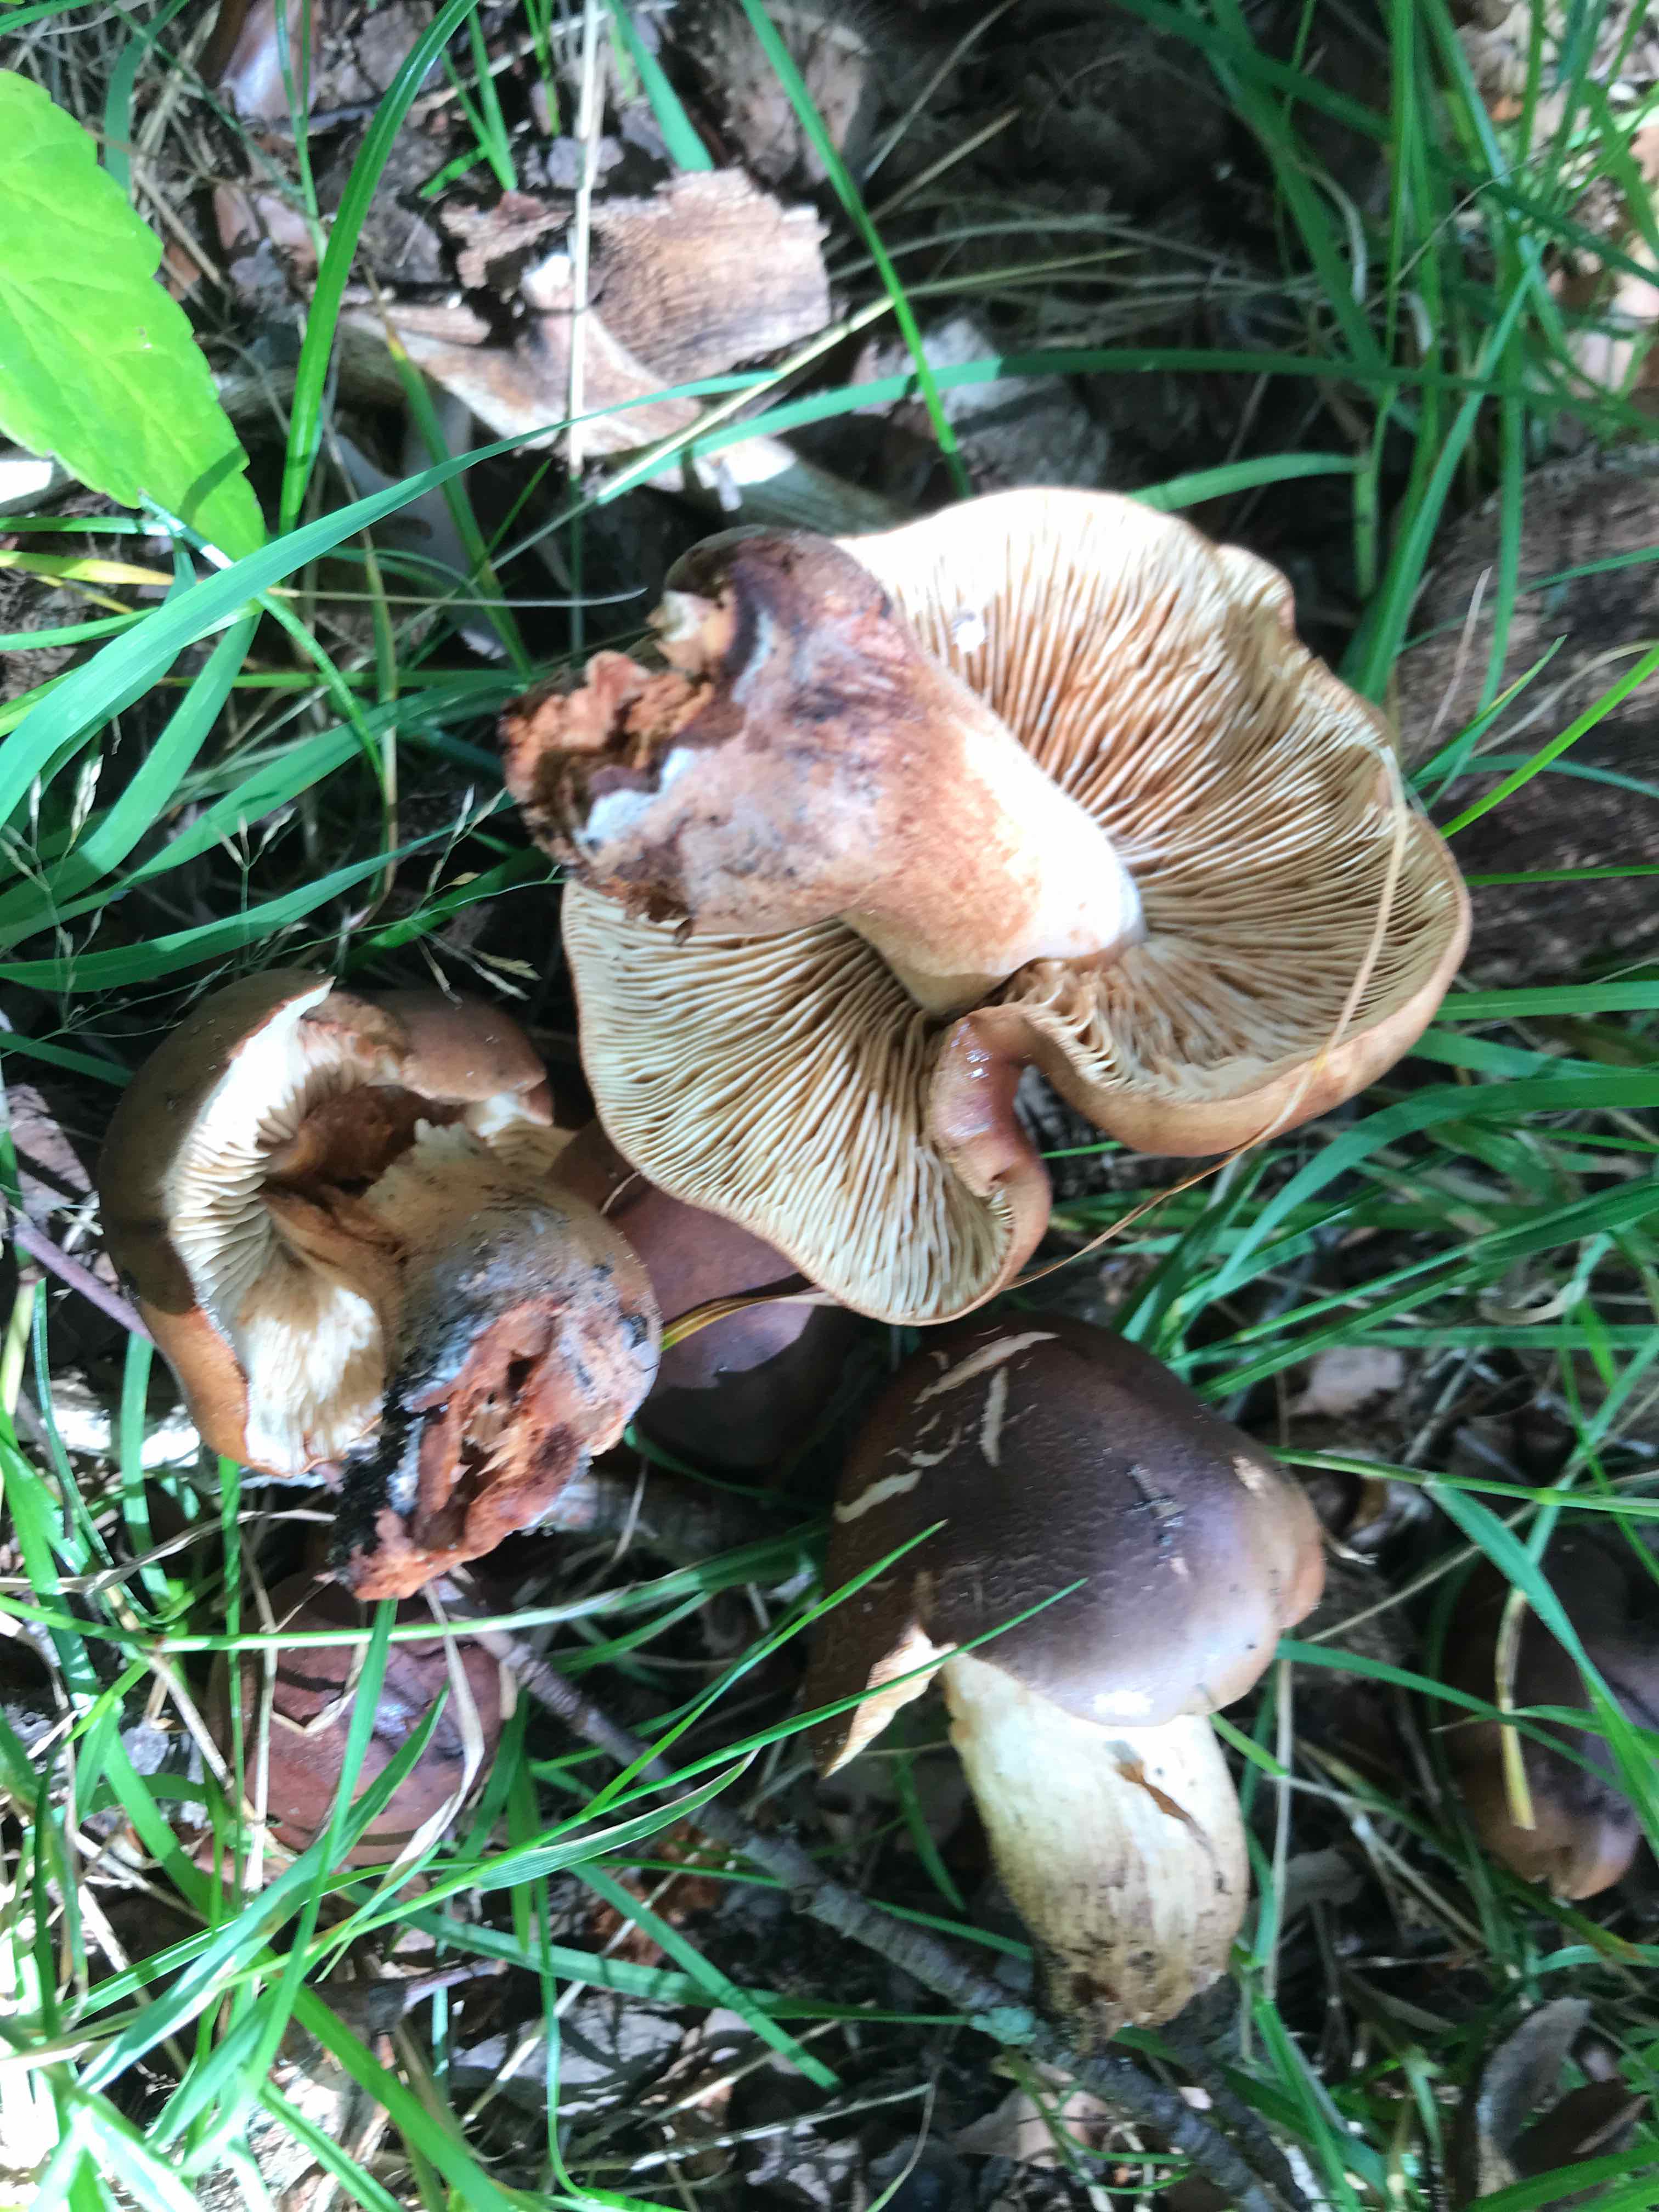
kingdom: Fungi
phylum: Basidiomycota
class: Agaricomycetes
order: Agaricales
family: Tricholomataceae
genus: Tricholoma
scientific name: Tricholoma ustale
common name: sveden ridderhat
